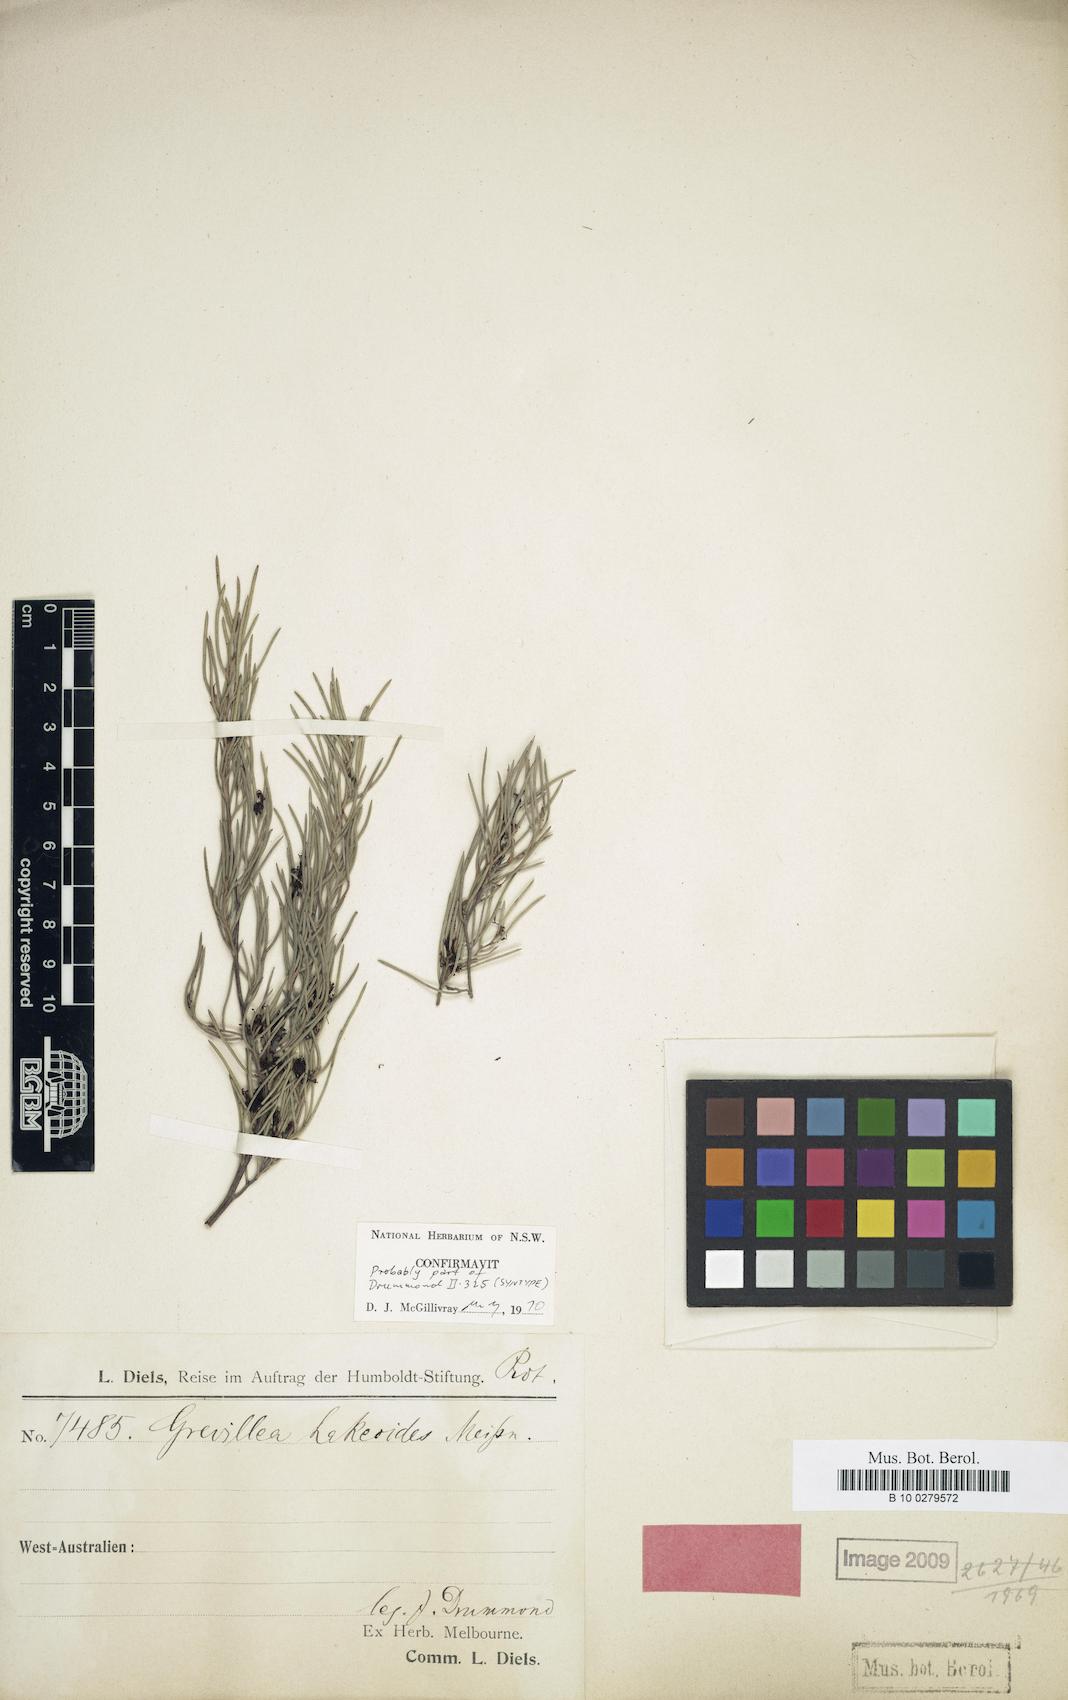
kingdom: Plantae
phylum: Tracheophyta
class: Magnoliopsida
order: Proteales
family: Proteaceae
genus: Grevillea
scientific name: Grevillea hakeoides
